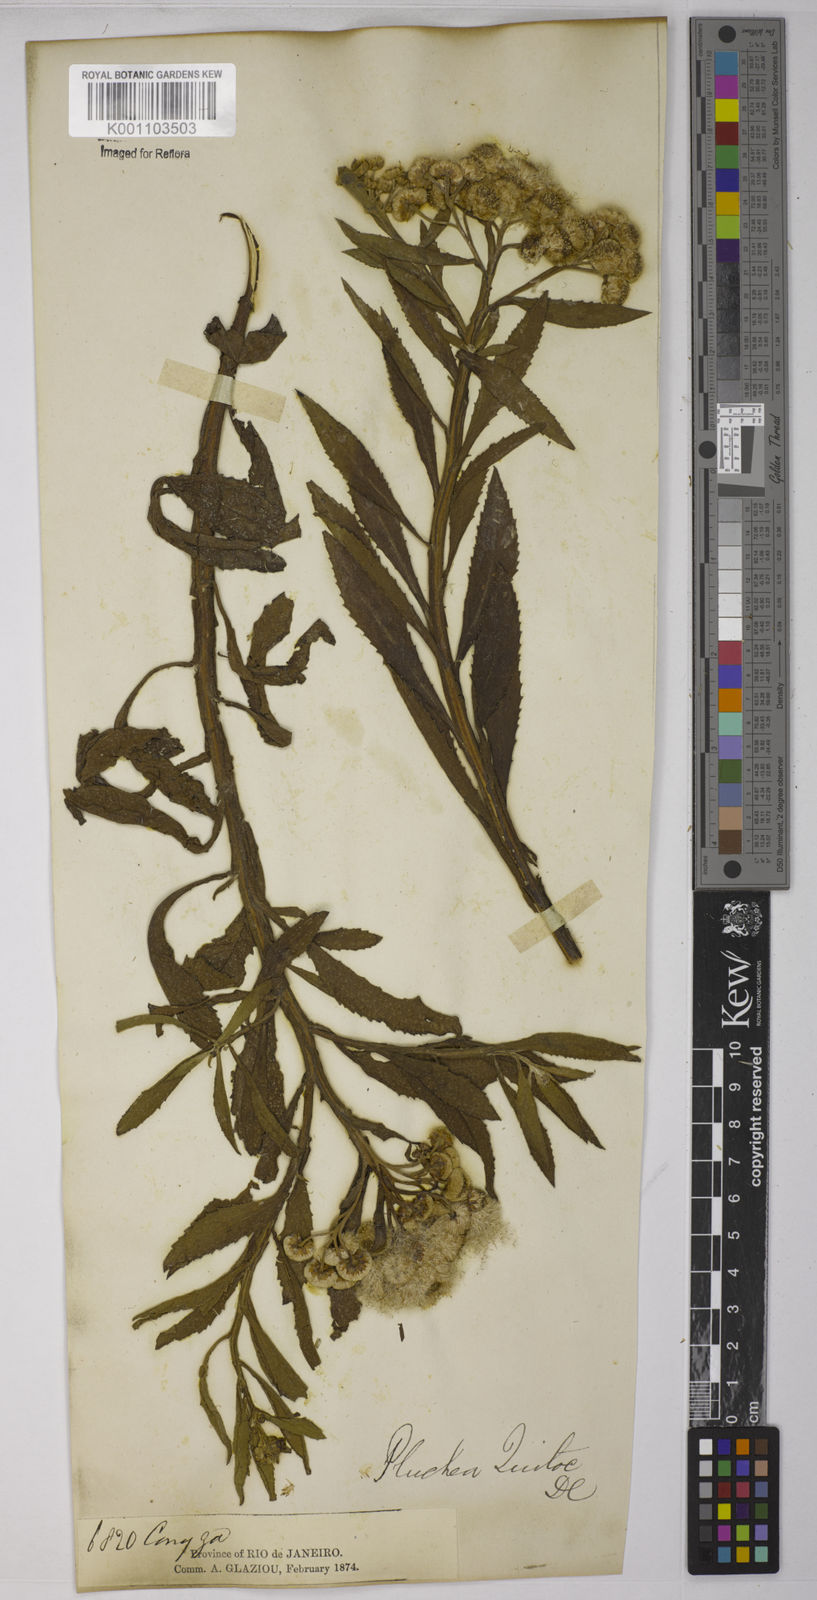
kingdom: Plantae
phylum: Tracheophyta
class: Magnoliopsida
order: Asterales
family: Asteraceae
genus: Pluchea
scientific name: Pluchea sagittalis
